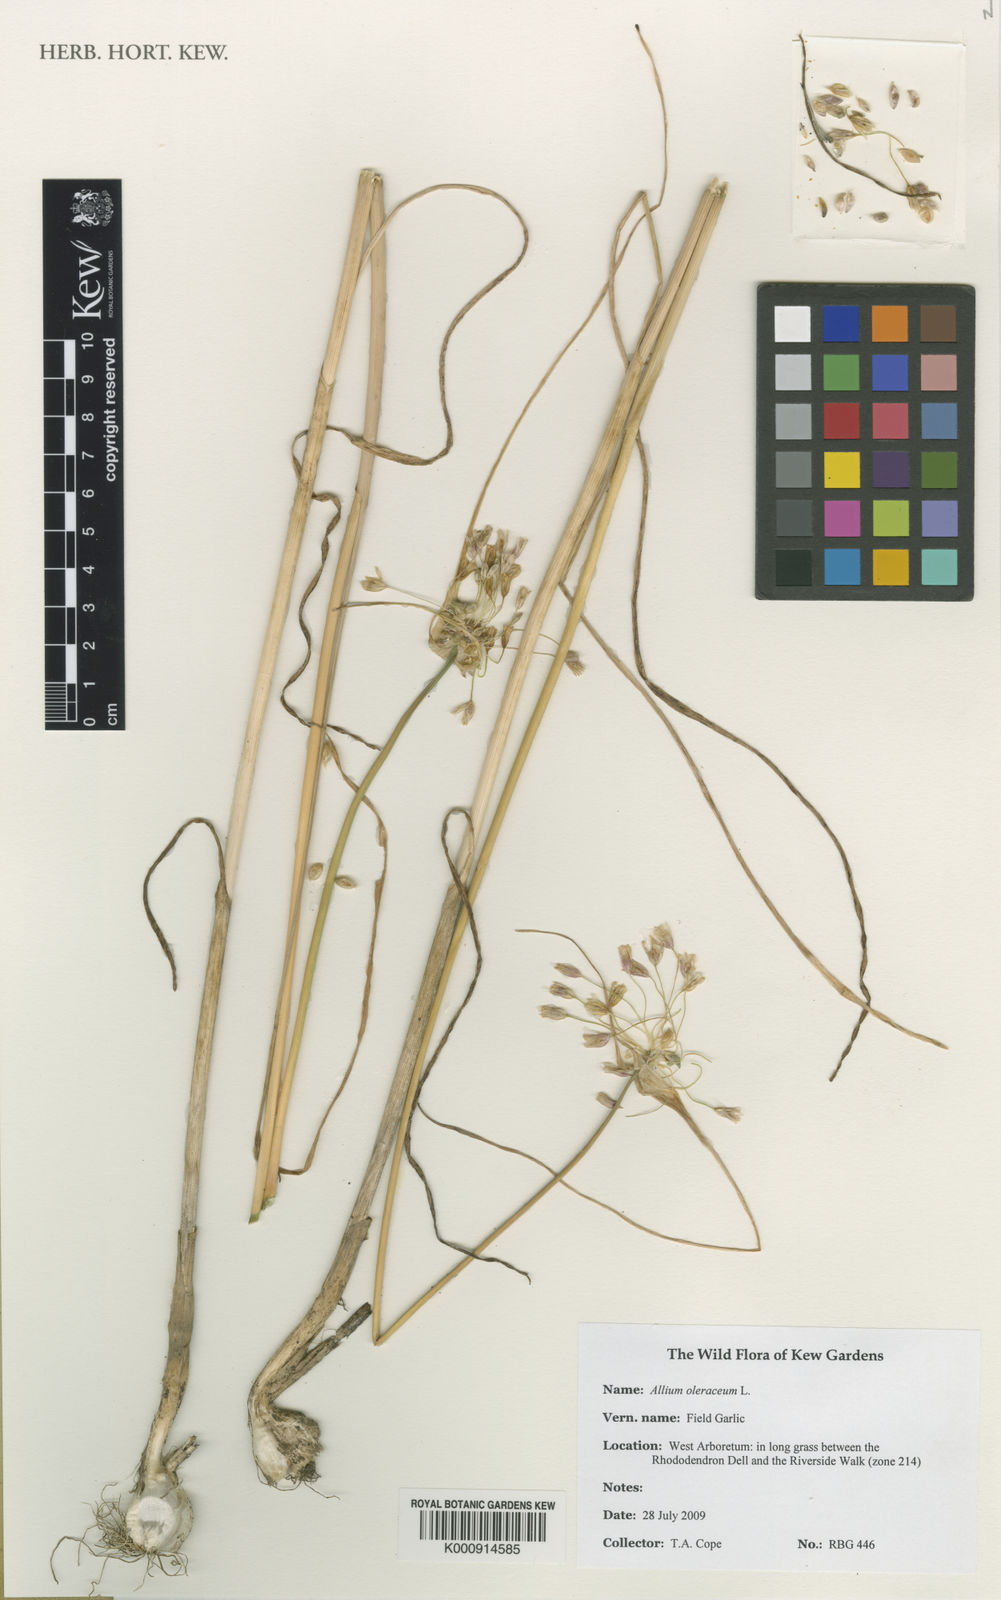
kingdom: Plantae
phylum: Tracheophyta
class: Liliopsida
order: Asparagales
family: Amaryllidaceae
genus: Allium
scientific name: Allium oleraceum
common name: Field garlic
